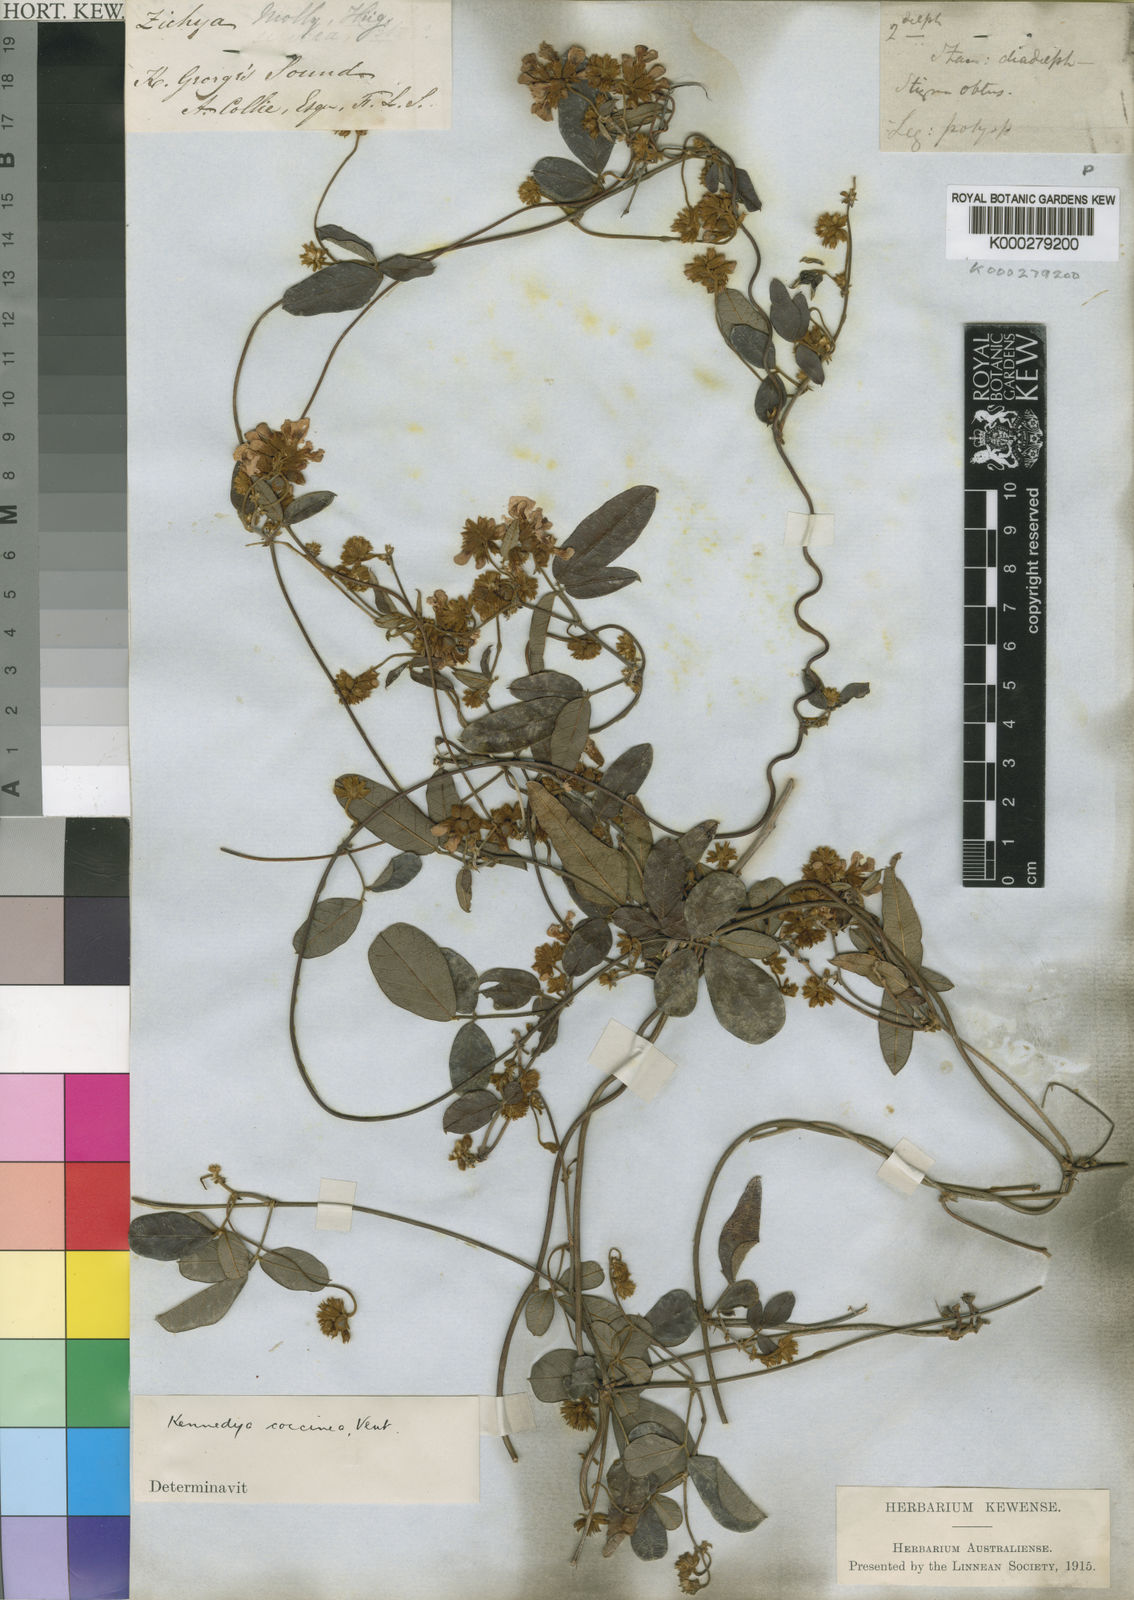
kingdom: Plantae
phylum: Tracheophyta
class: Magnoliopsida
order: Fabales
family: Fabaceae
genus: Kennedia
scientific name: Kennedia coccinea
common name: Coralvine
